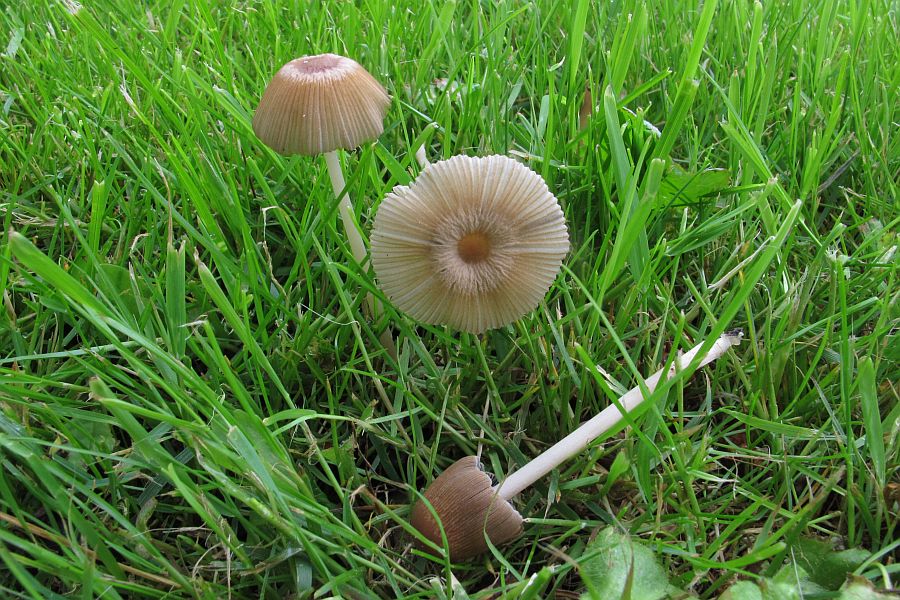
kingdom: Fungi
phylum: Basidiomycota
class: Agaricomycetes
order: Agaricales
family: Psathyrellaceae
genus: Parasola
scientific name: Parasola auricoma
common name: hansens hjulhat
